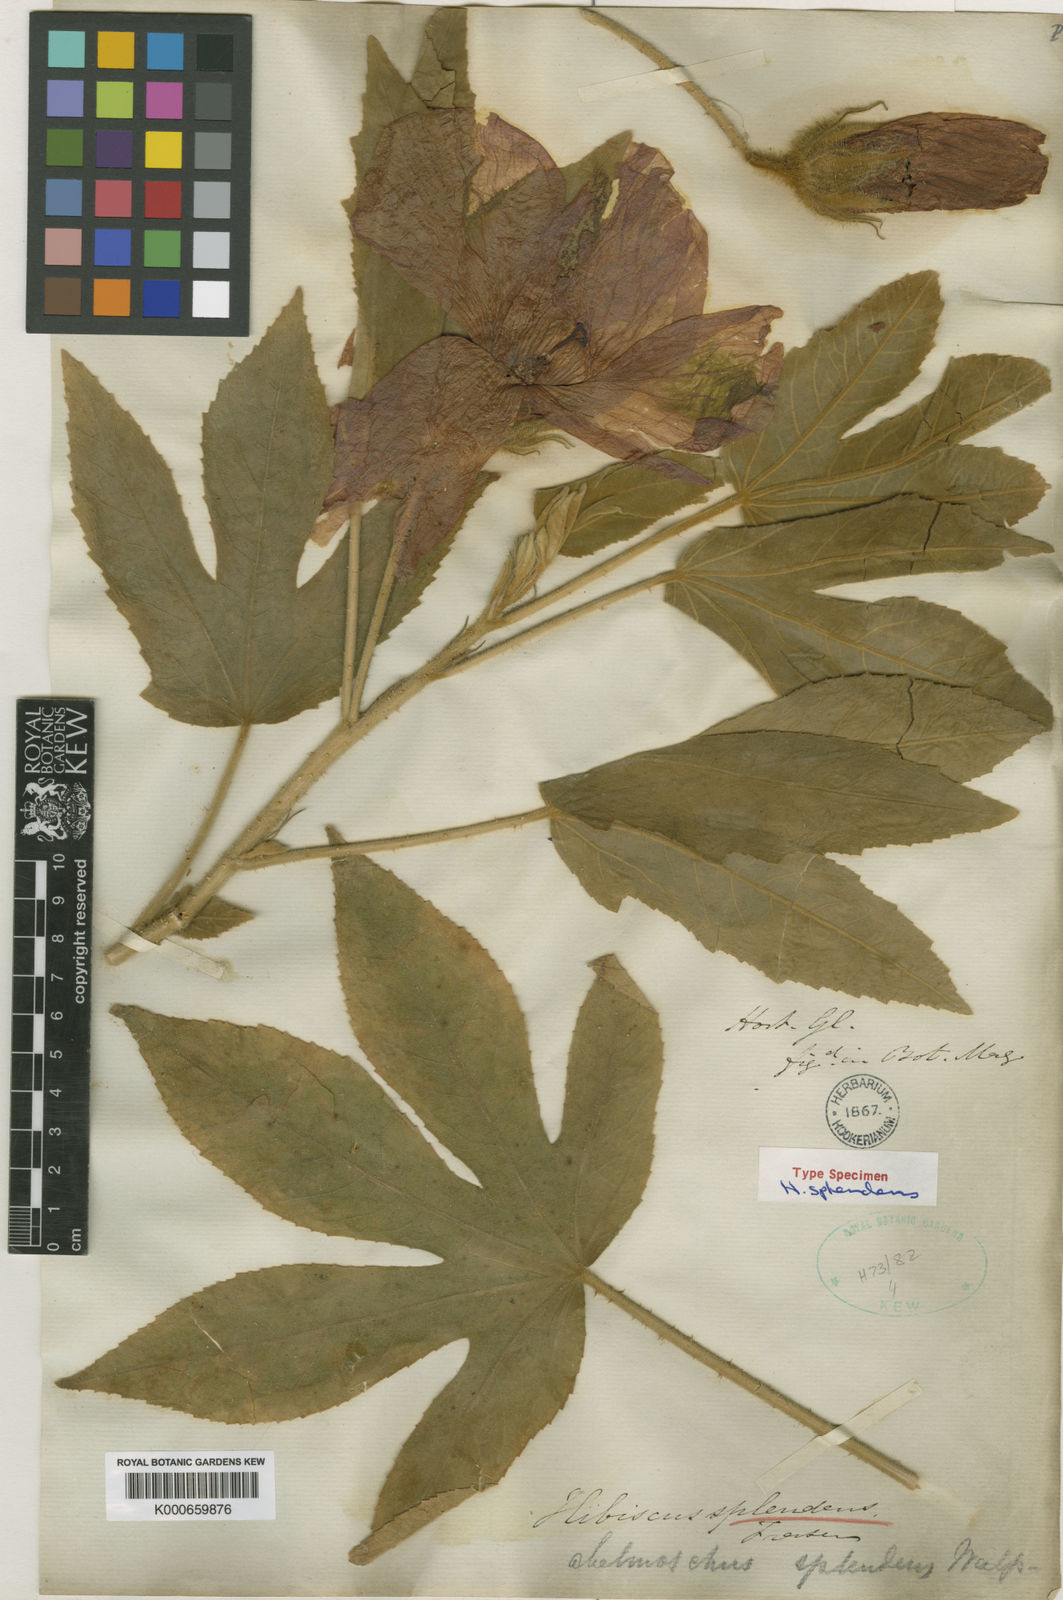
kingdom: Plantae
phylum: Tracheophyta
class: Magnoliopsida
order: Malvales
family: Malvaceae
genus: Hibiscus
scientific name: Hibiscus splendens
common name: Hollyhock-tree
